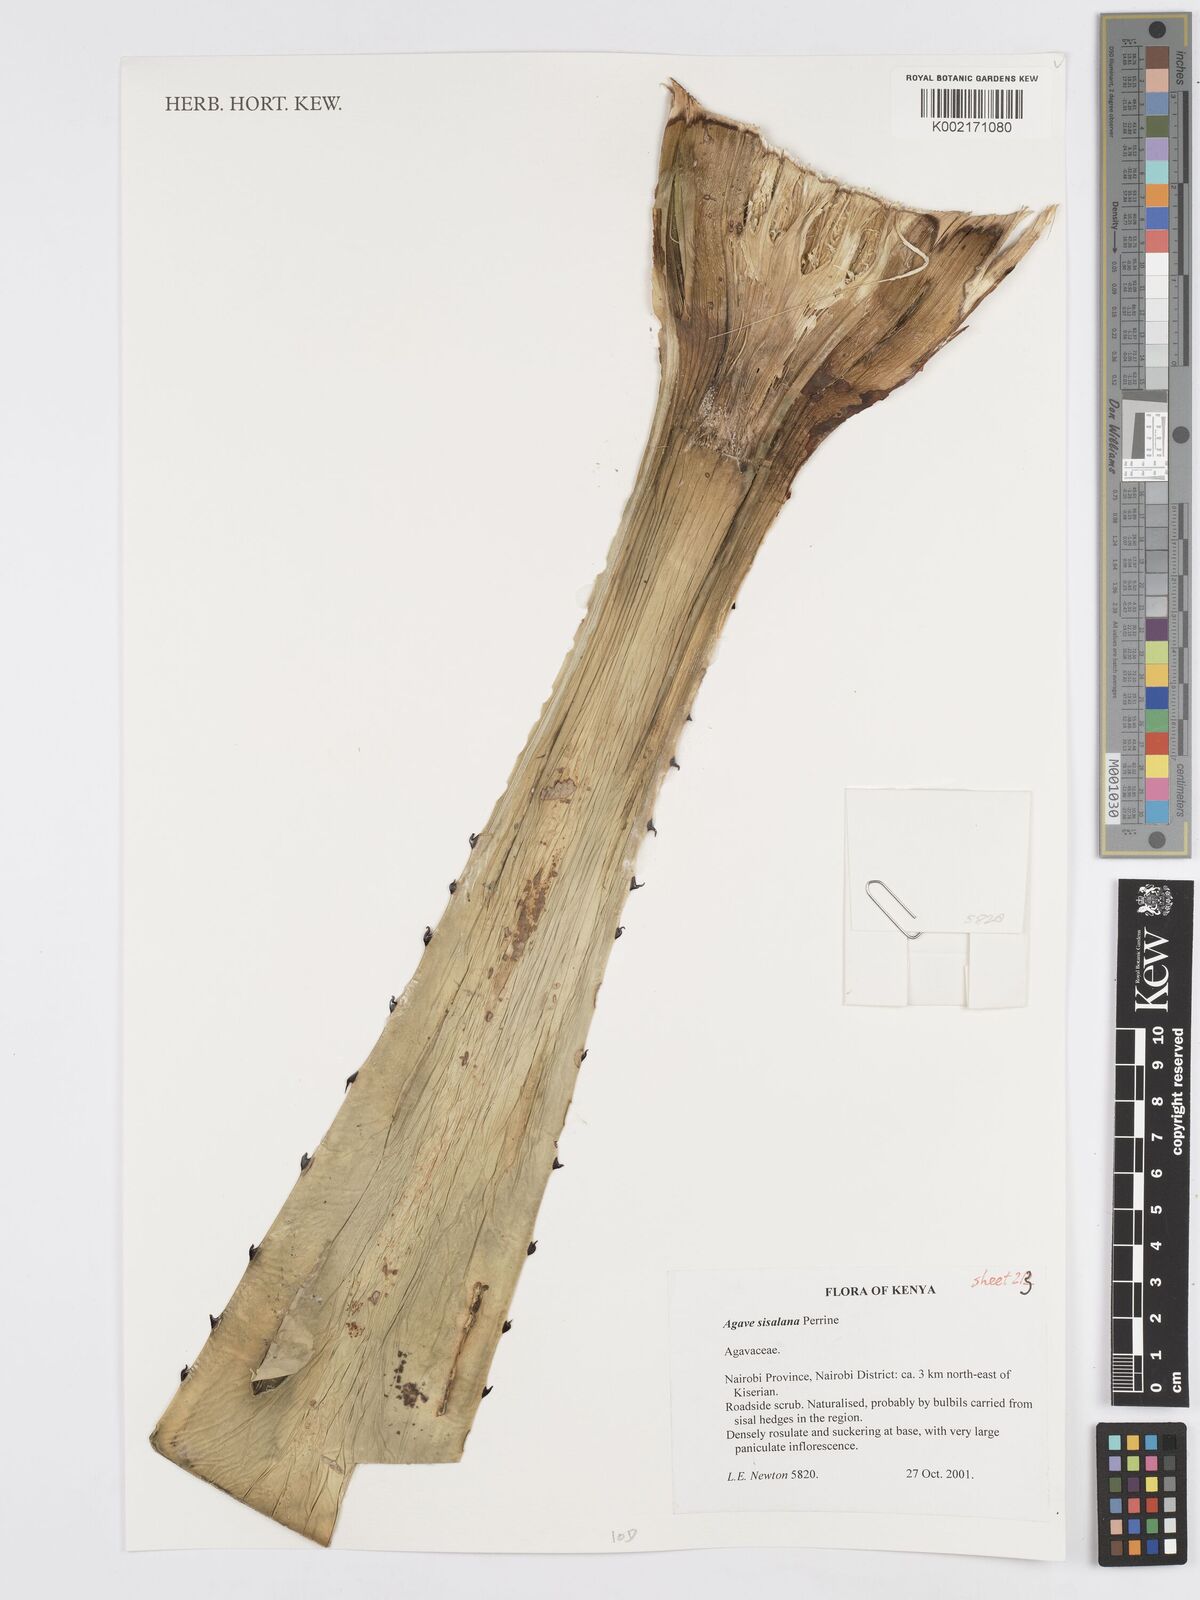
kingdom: Plantae
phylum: Tracheophyta
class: Liliopsida
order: Asparagales
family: Asparagaceae
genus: Agave
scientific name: Agave sisalana
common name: Sisal hemp
